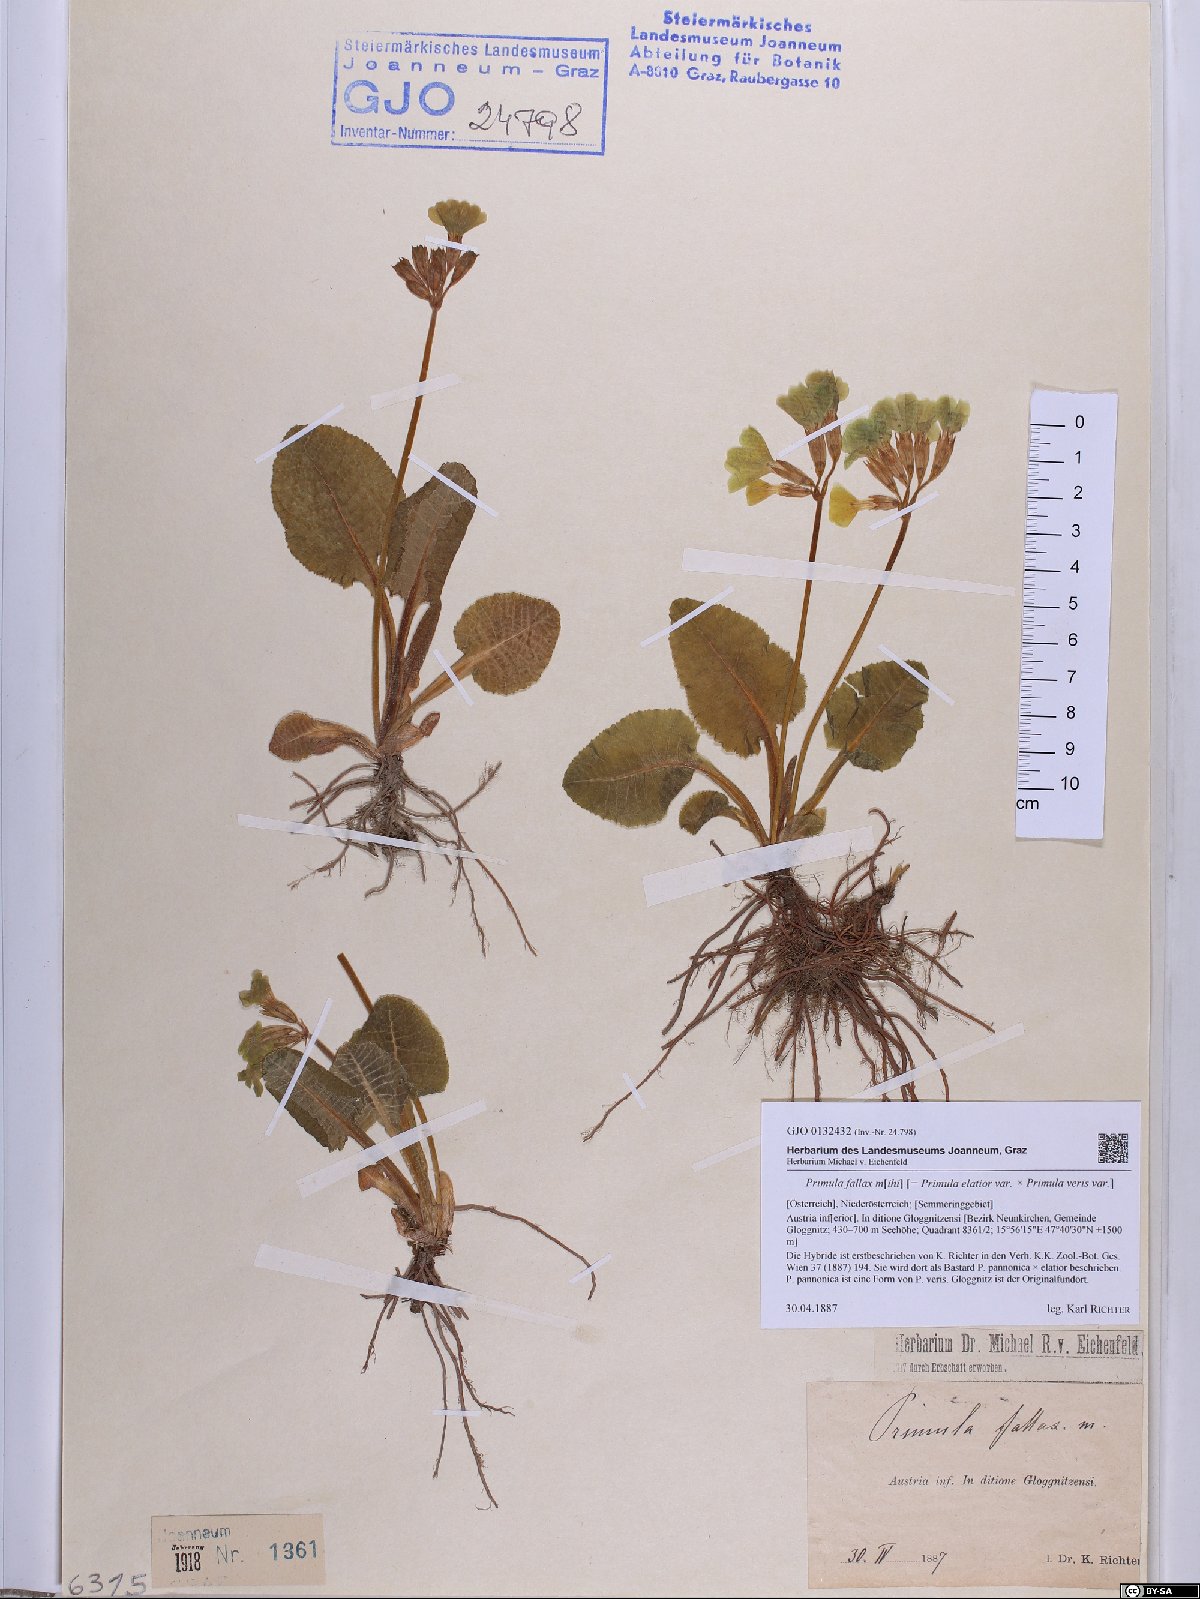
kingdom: Plantae
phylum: Tracheophyta
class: Magnoliopsida
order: Ericales
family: Primulaceae
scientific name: Primulaceae
